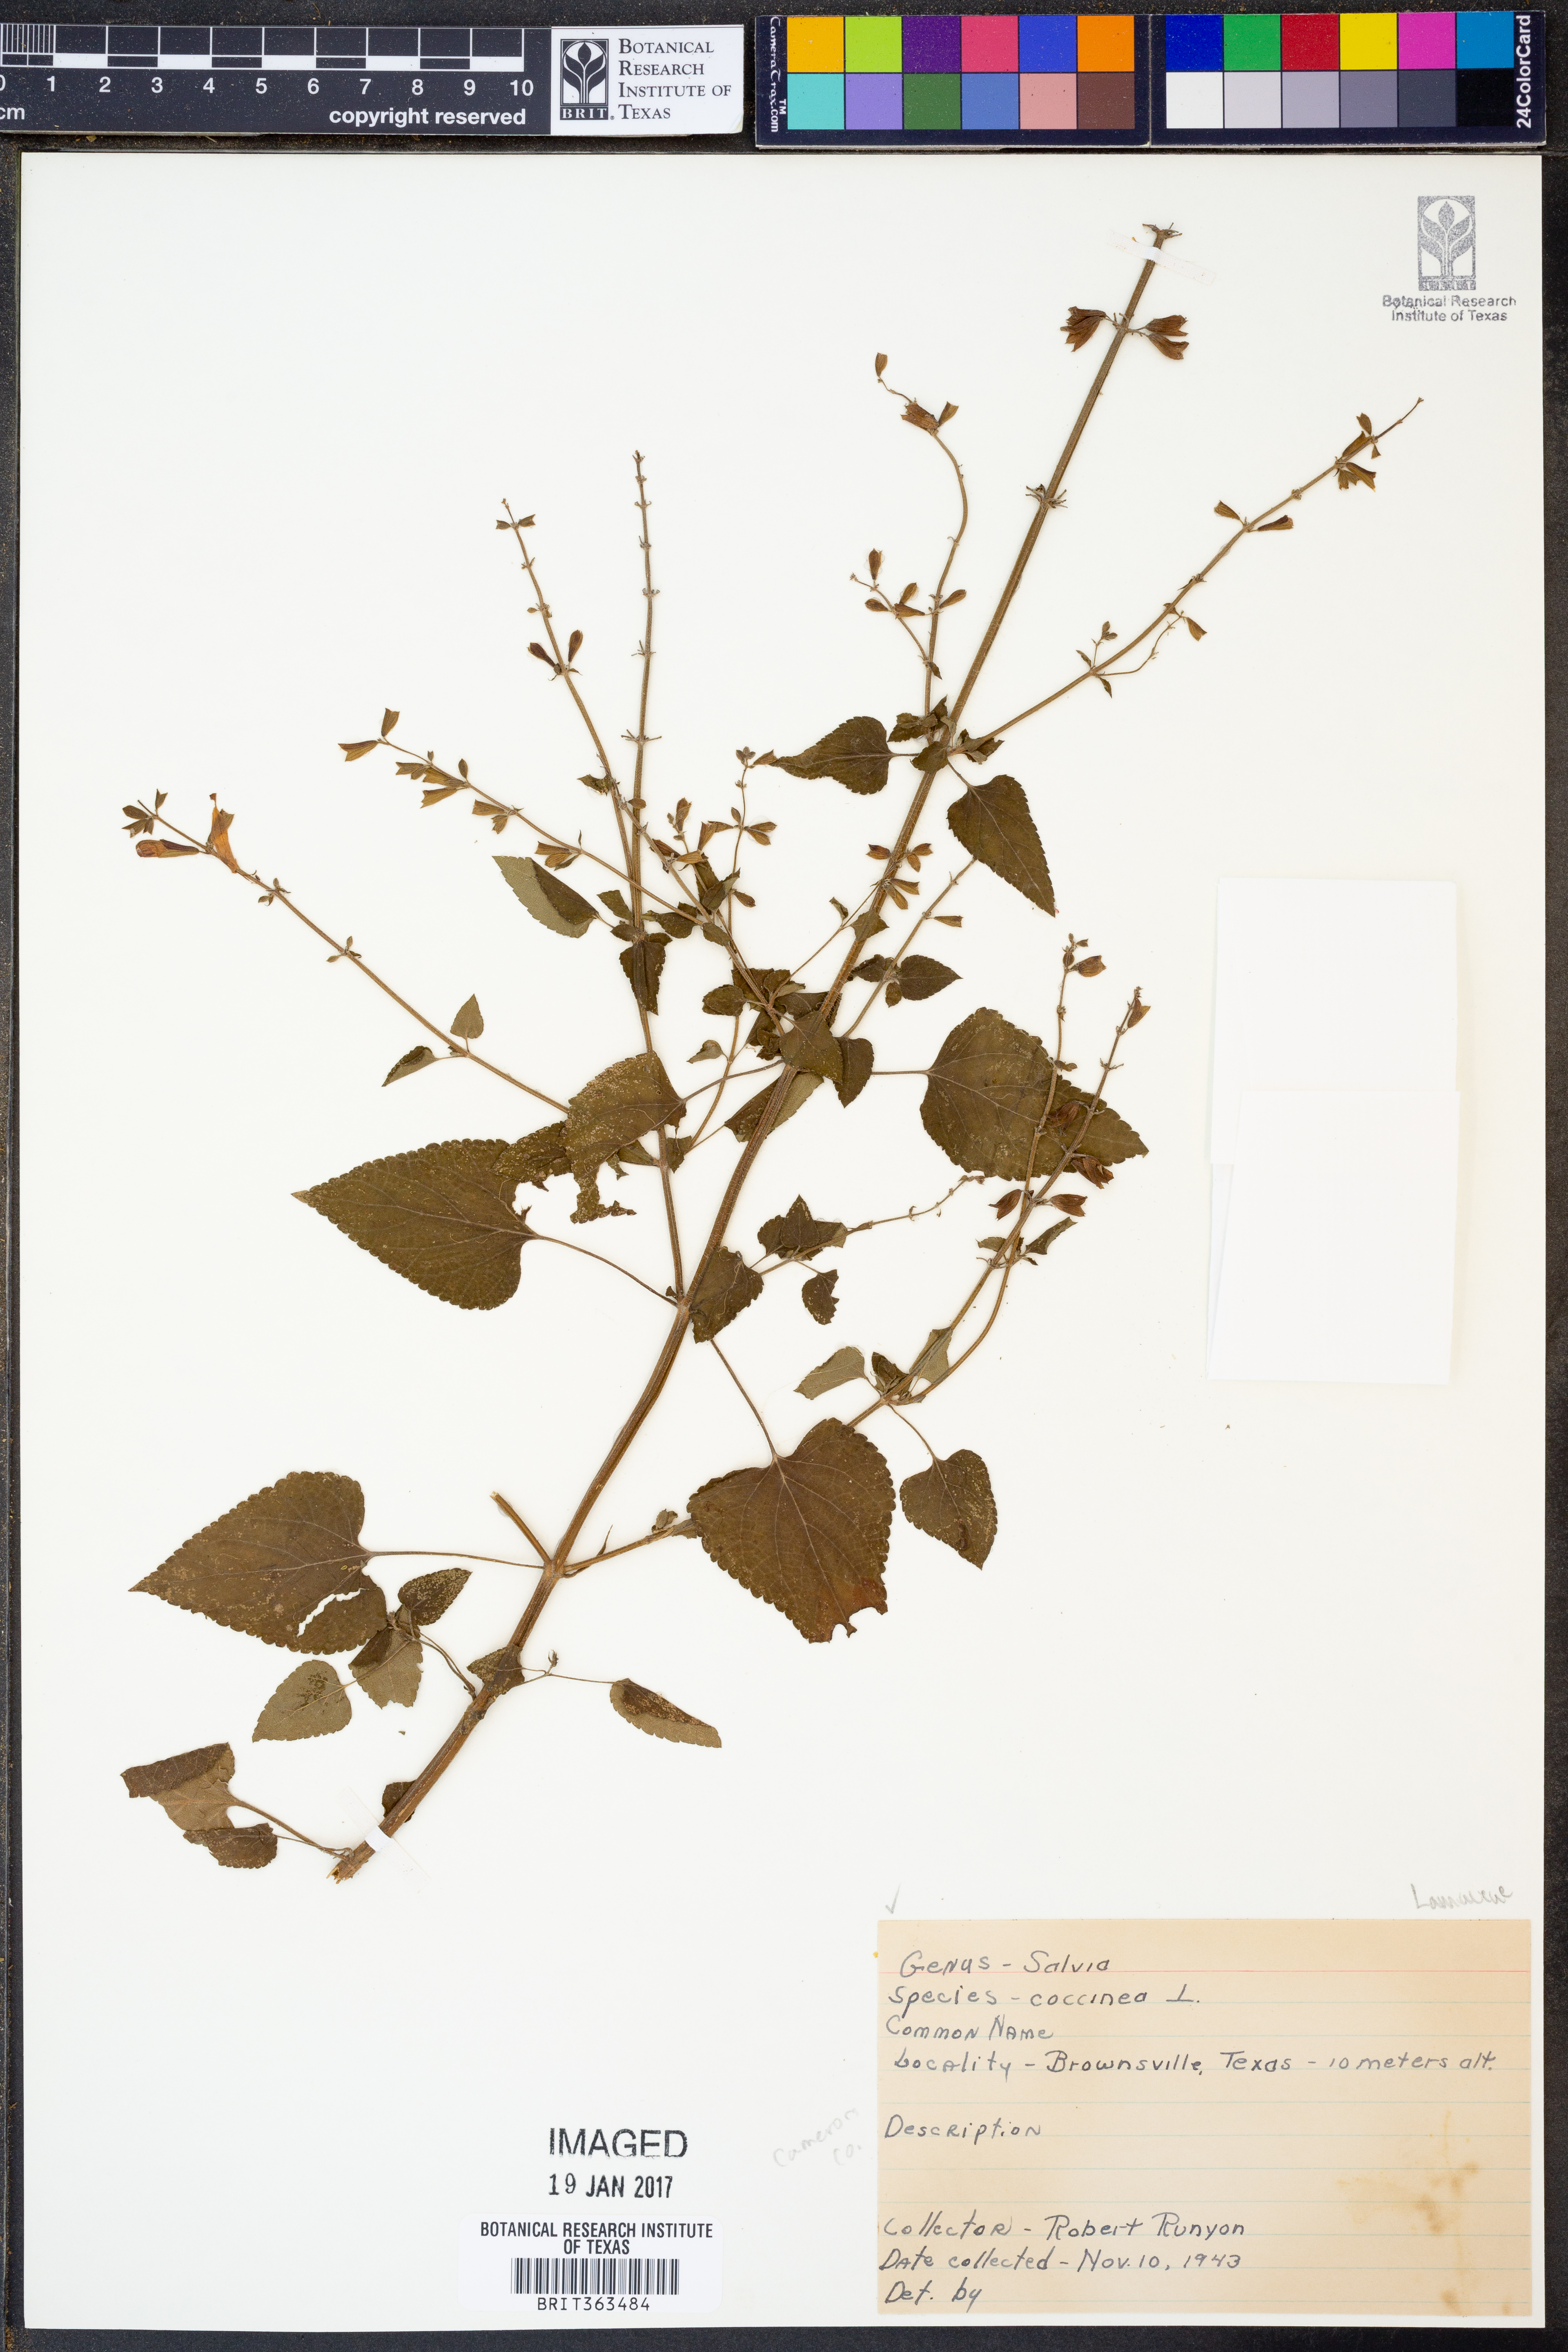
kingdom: Plantae
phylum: Tracheophyta
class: Magnoliopsida
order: Lamiales
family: Lamiaceae
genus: Salvia
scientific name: Salvia coccinea
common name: Blood sage
